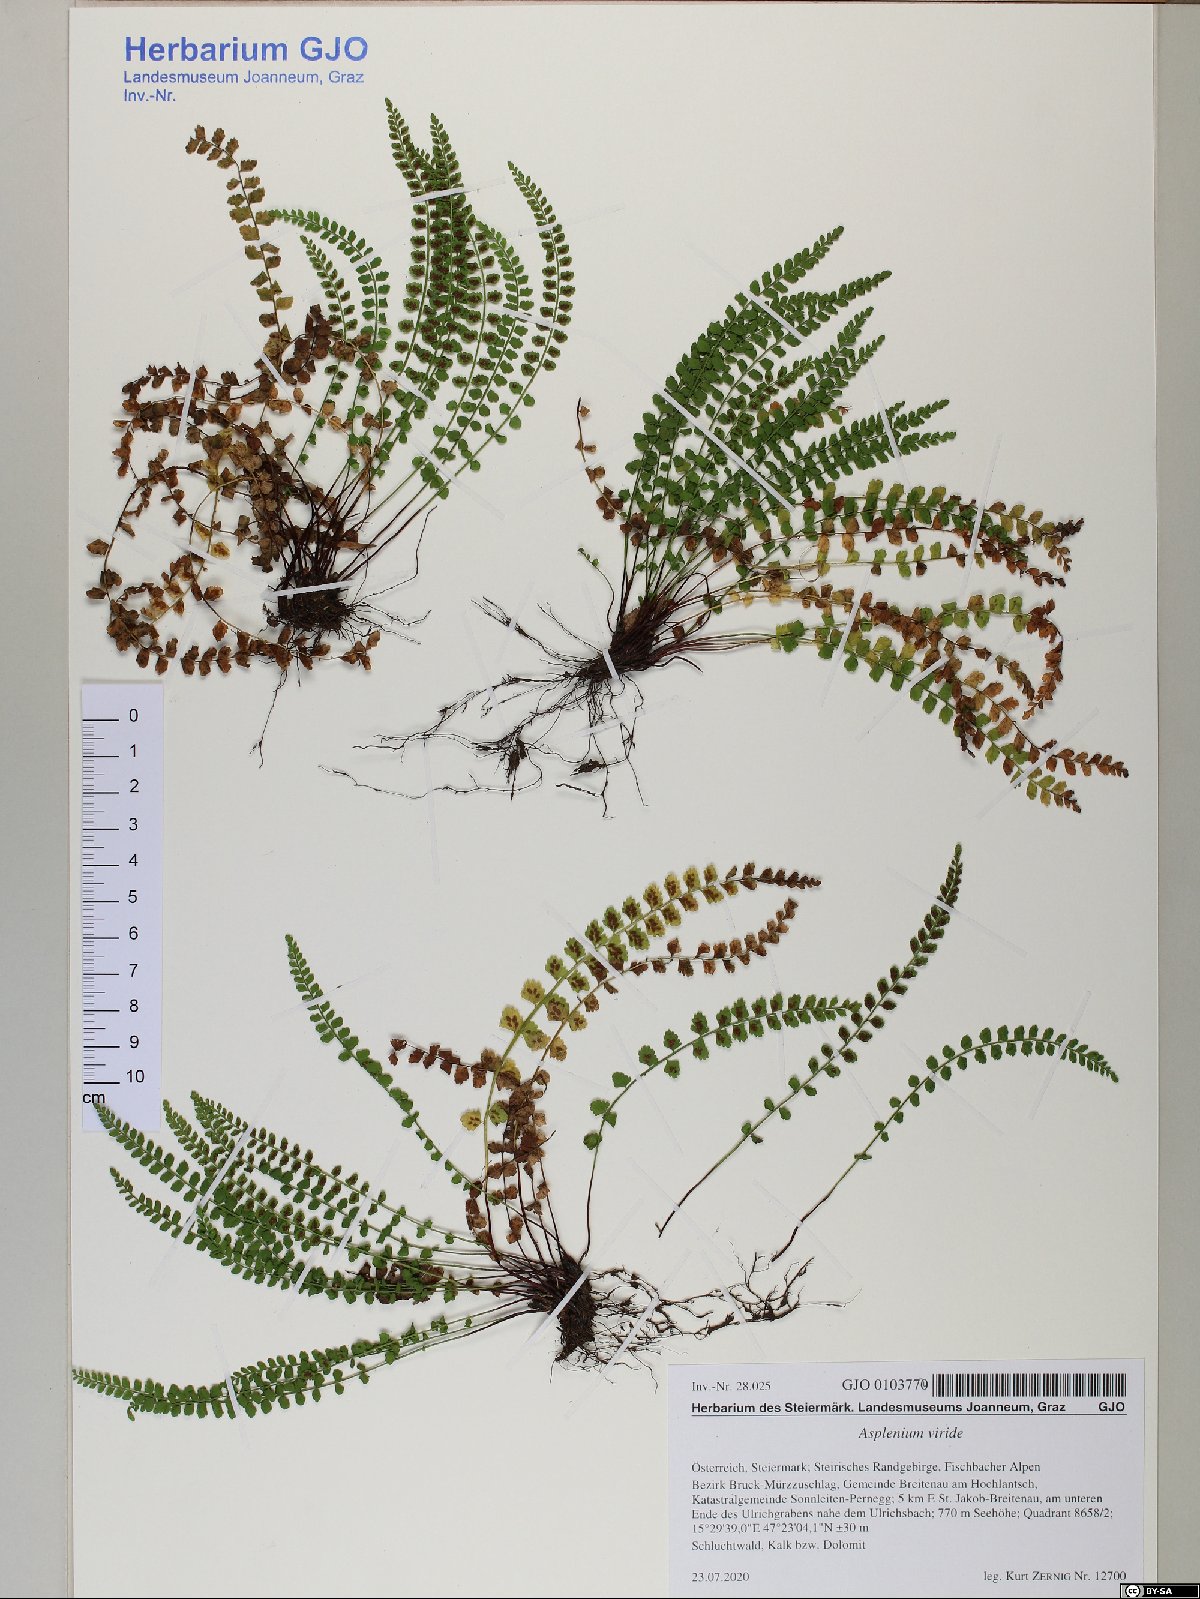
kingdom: Plantae
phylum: Tracheophyta
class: Polypodiopsida
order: Polypodiales
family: Aspleniaceae
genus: Asplenium
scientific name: Asplenium viride
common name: Green spleenwort
